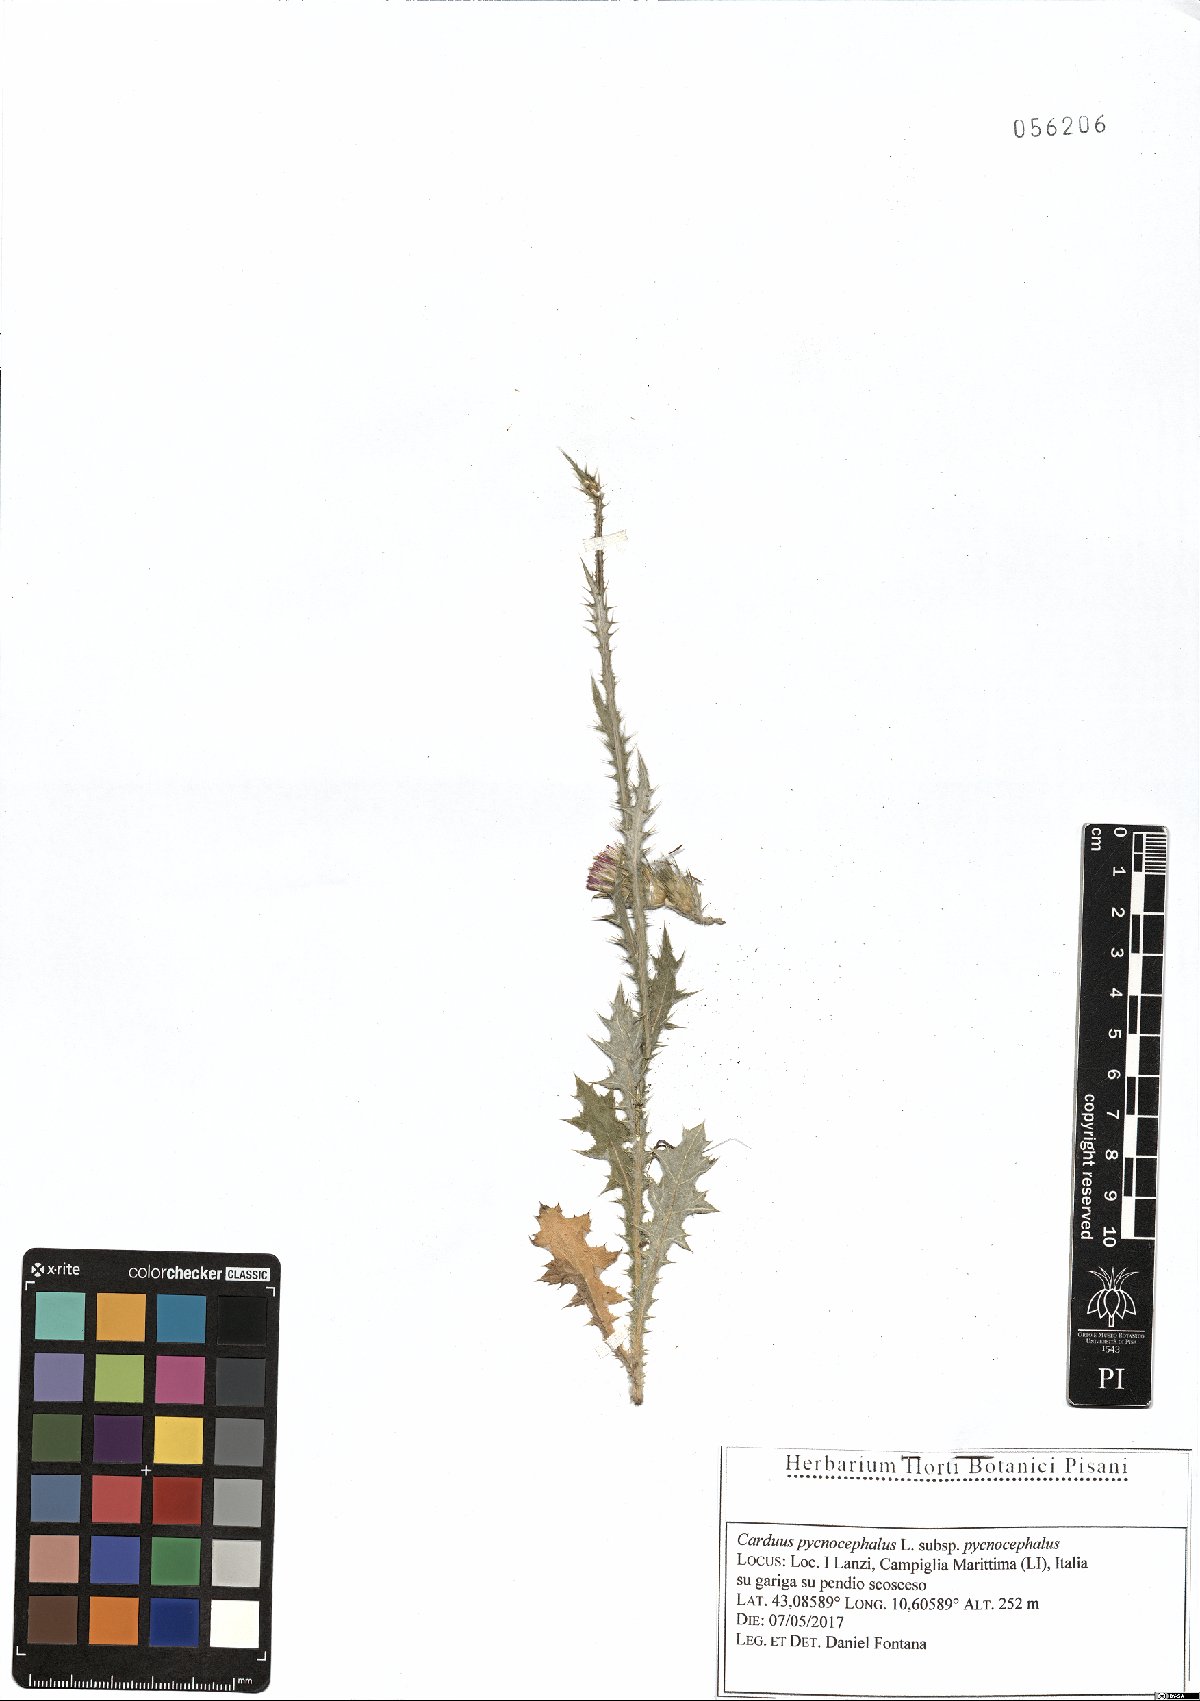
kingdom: Plantae
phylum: Tracheophyta
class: Magnoliopsida
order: Asterales
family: Asteraceae
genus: Carduus
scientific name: Carduus pycnocephalus
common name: Plymouth thistle
